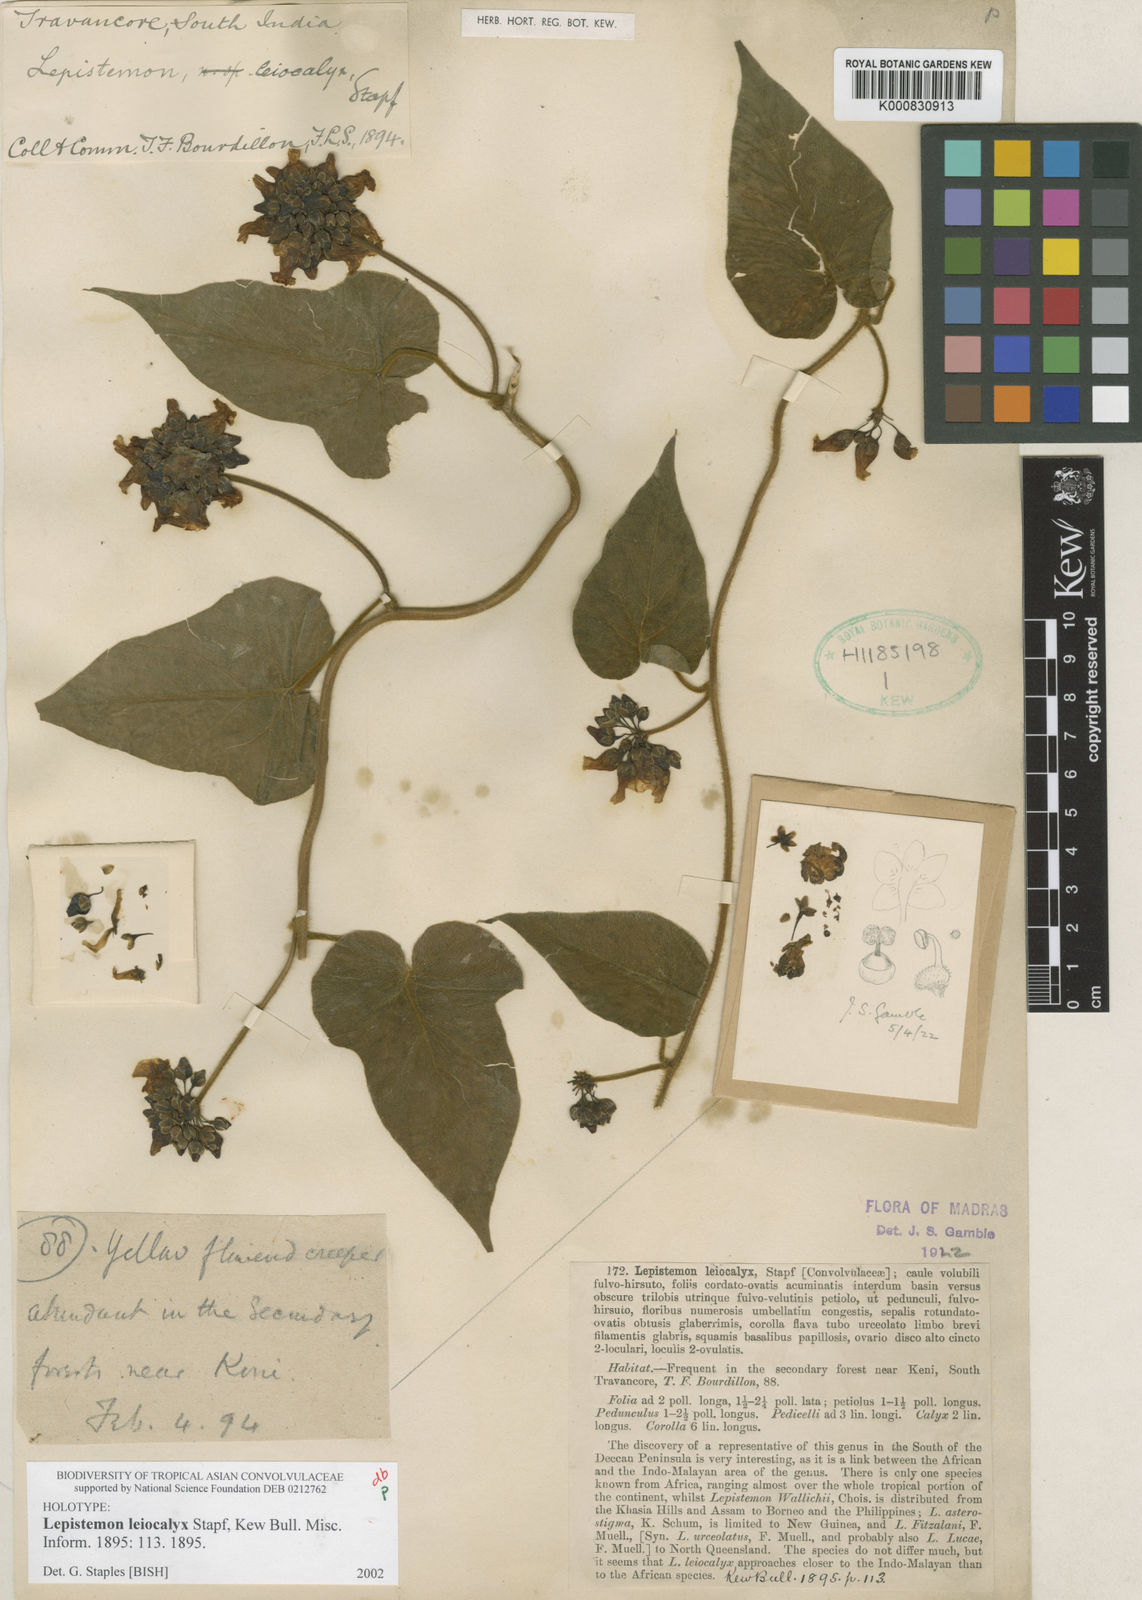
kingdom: Plantae
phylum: Tracheophyta
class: Magnoliopsida
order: Solanales
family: Convolvulaceae
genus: Lepistemon
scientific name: Lepistemon leiocalyx
